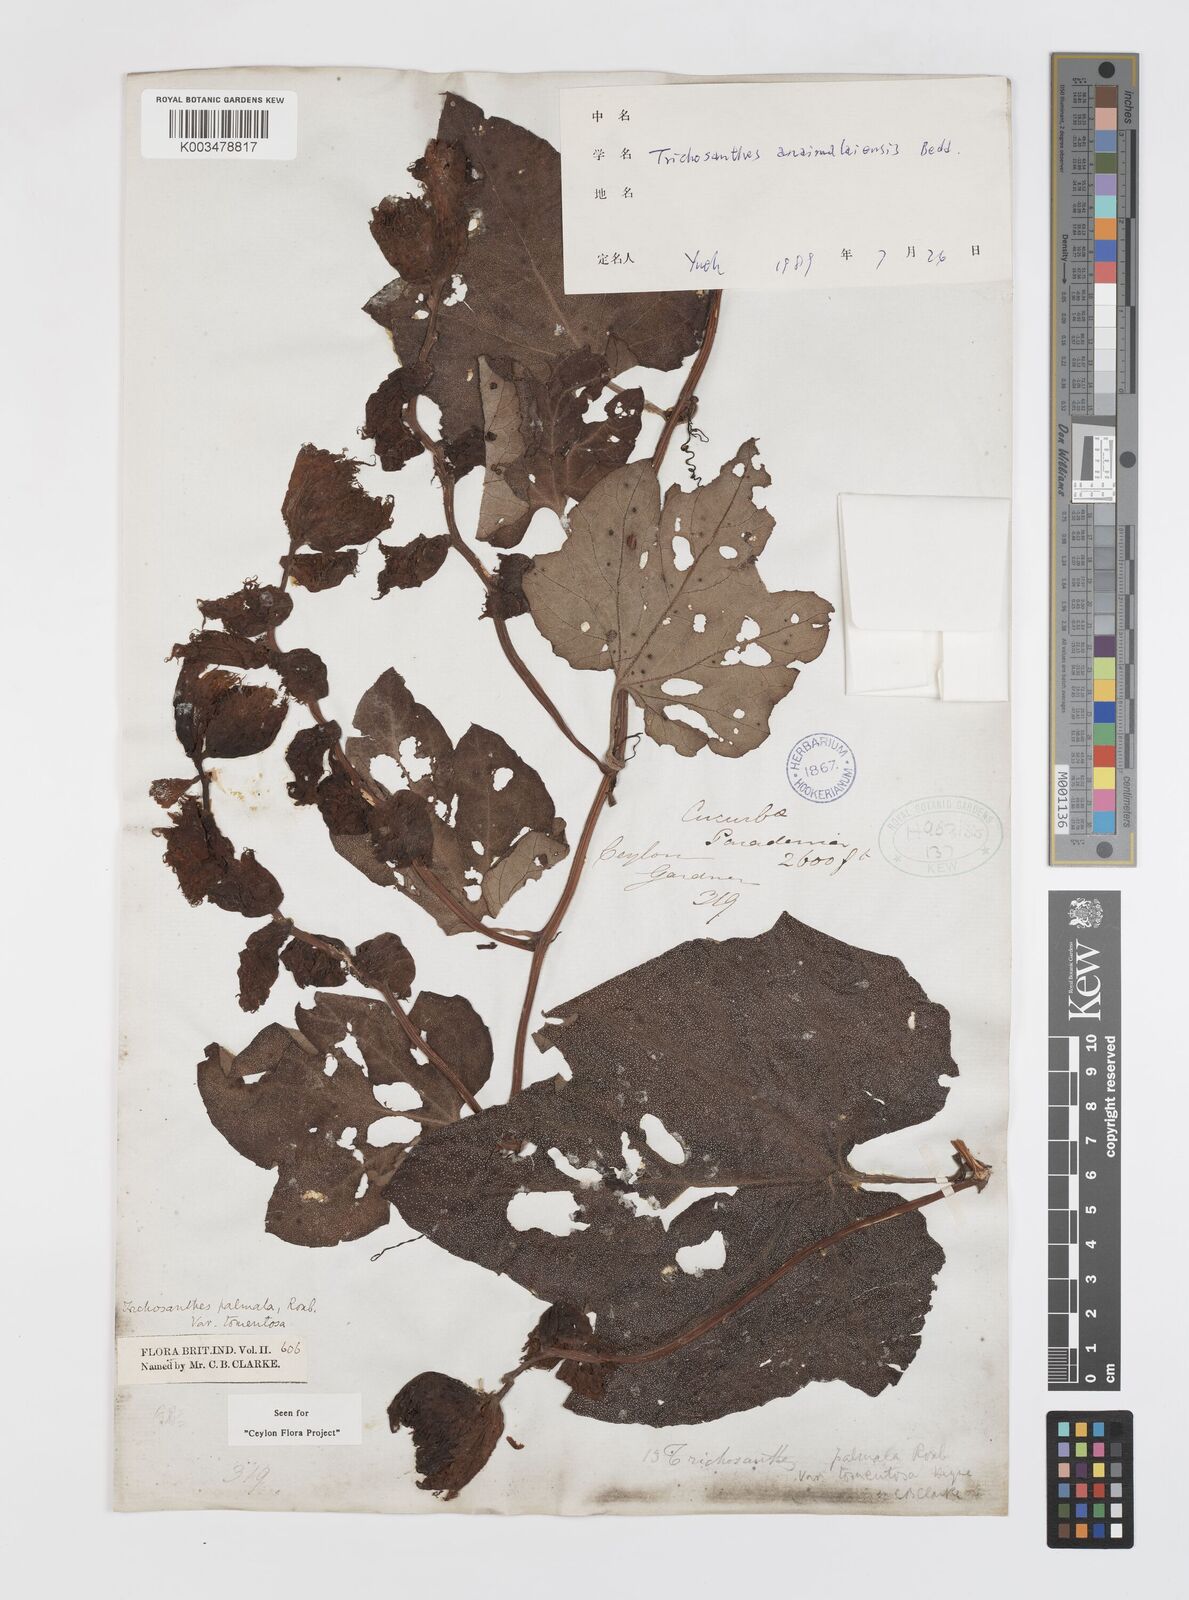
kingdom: Plantae
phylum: Tracheophyta
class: Magnoliopsida
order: Cucurbitales
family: Cucurbitaceae
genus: Trichosanthes
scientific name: Trichosanthes anaimalaiensis
